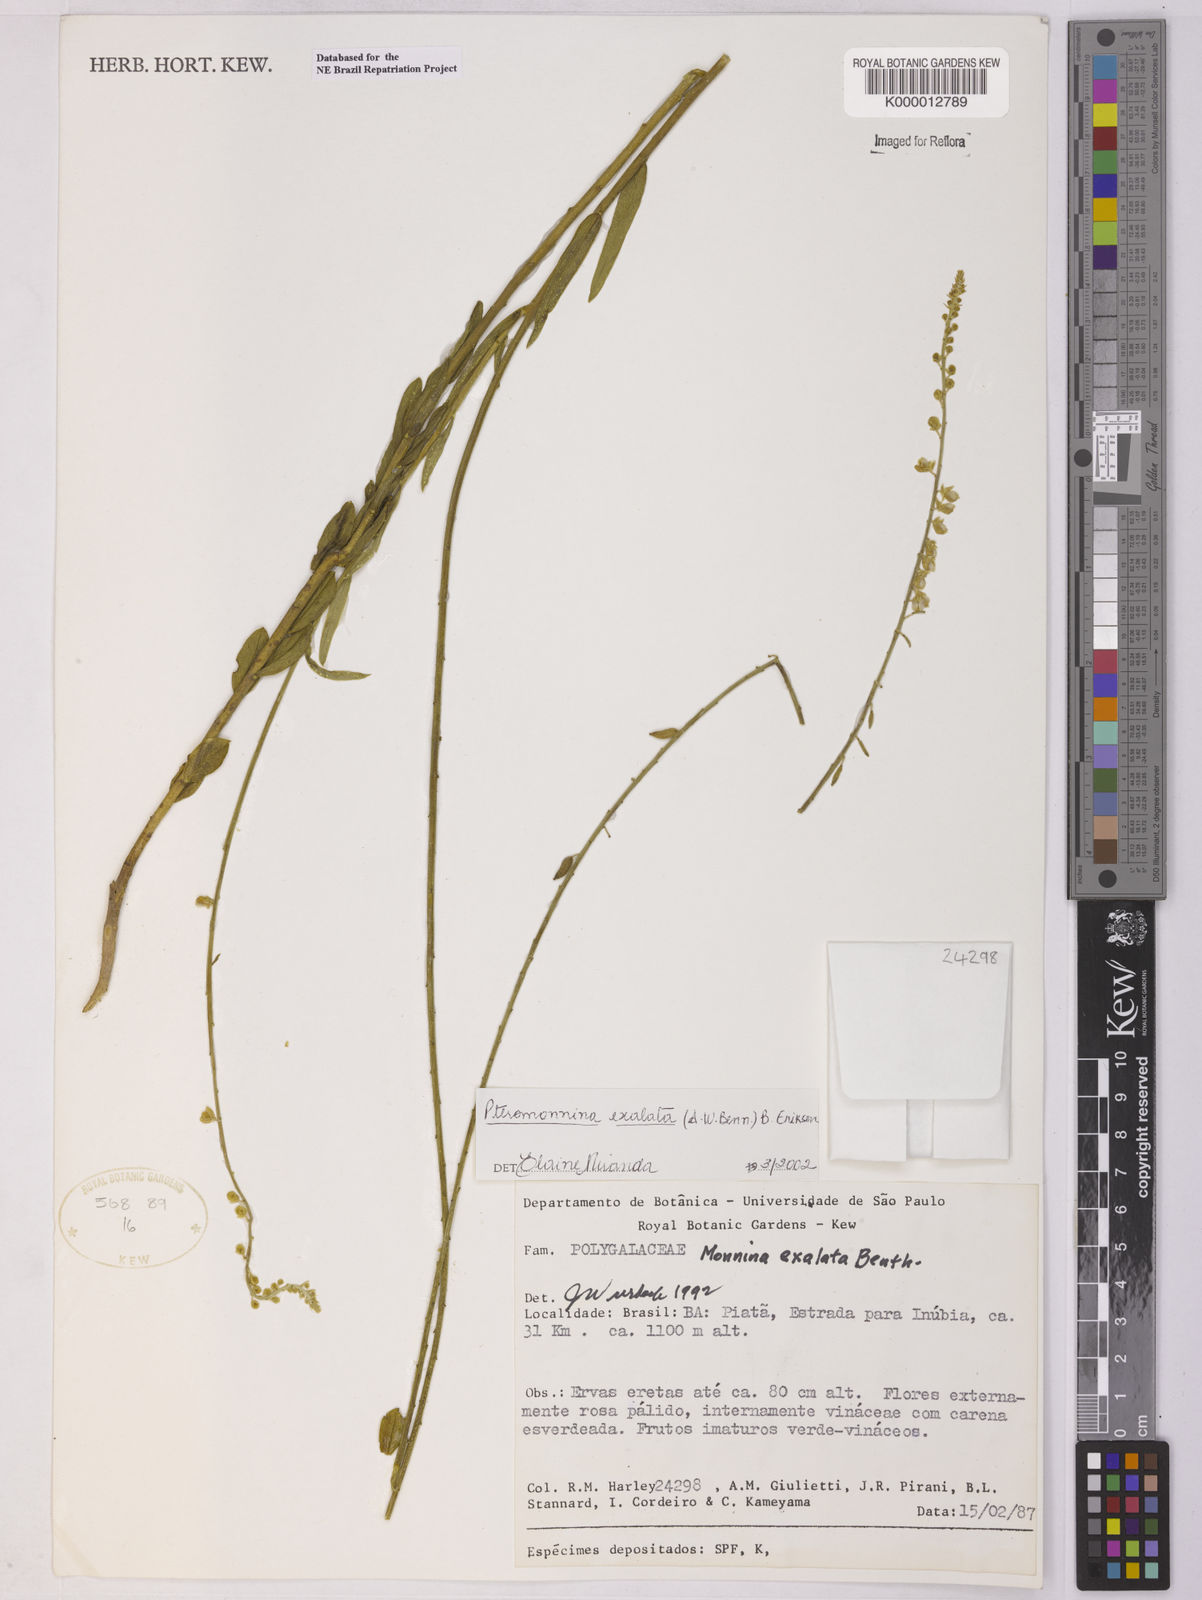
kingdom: Plantae
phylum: Tracheophyta
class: Magnoliopsida
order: Fabales
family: Polygalaceae
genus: Monnina
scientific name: Monnina exalata
